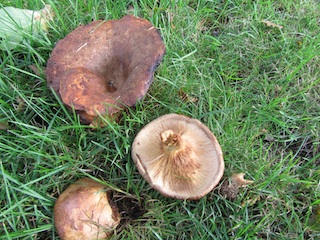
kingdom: Fungi
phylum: Basidiomycota
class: Agaricomycetes
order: Boletales
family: Paxillaceae
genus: Paxillus
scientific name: Paxillus obscurisporus
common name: mahognisporet netbladhat
